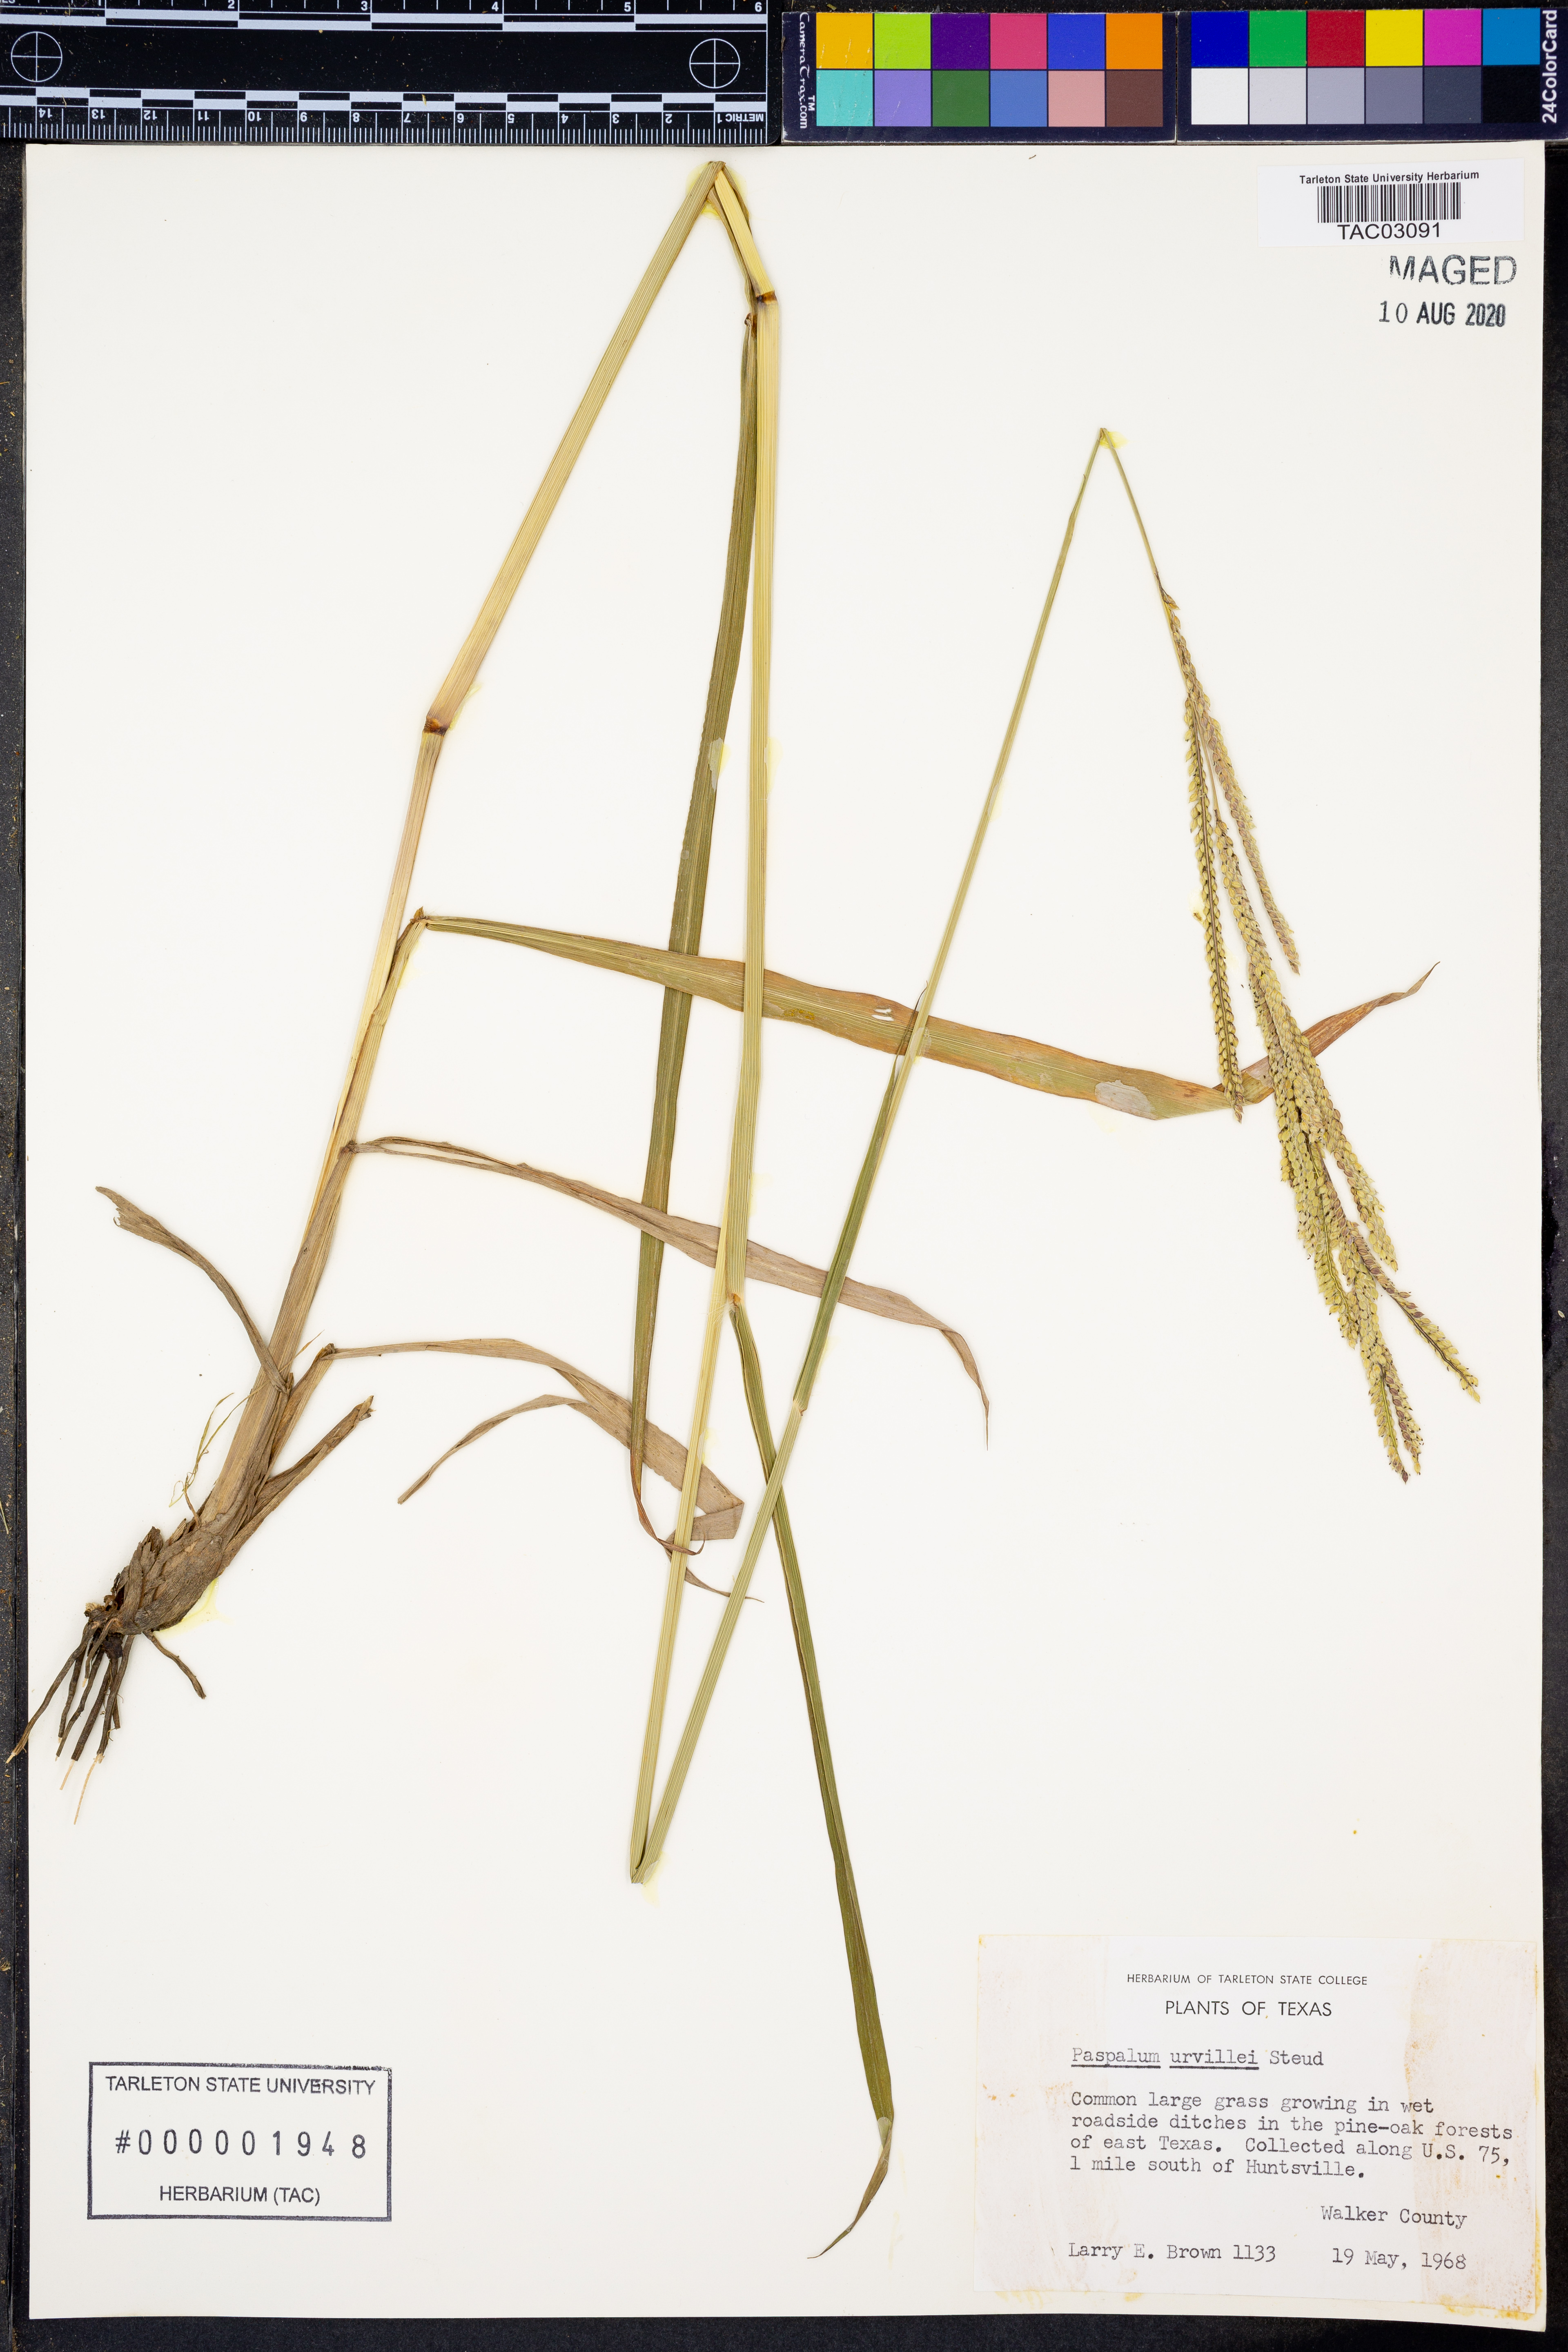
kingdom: Plantae
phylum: Tracheophyta
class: Liliopsida
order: Poales
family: Poaceae
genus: Paspalum
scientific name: Paspalum urvillei
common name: Vasey's grass
